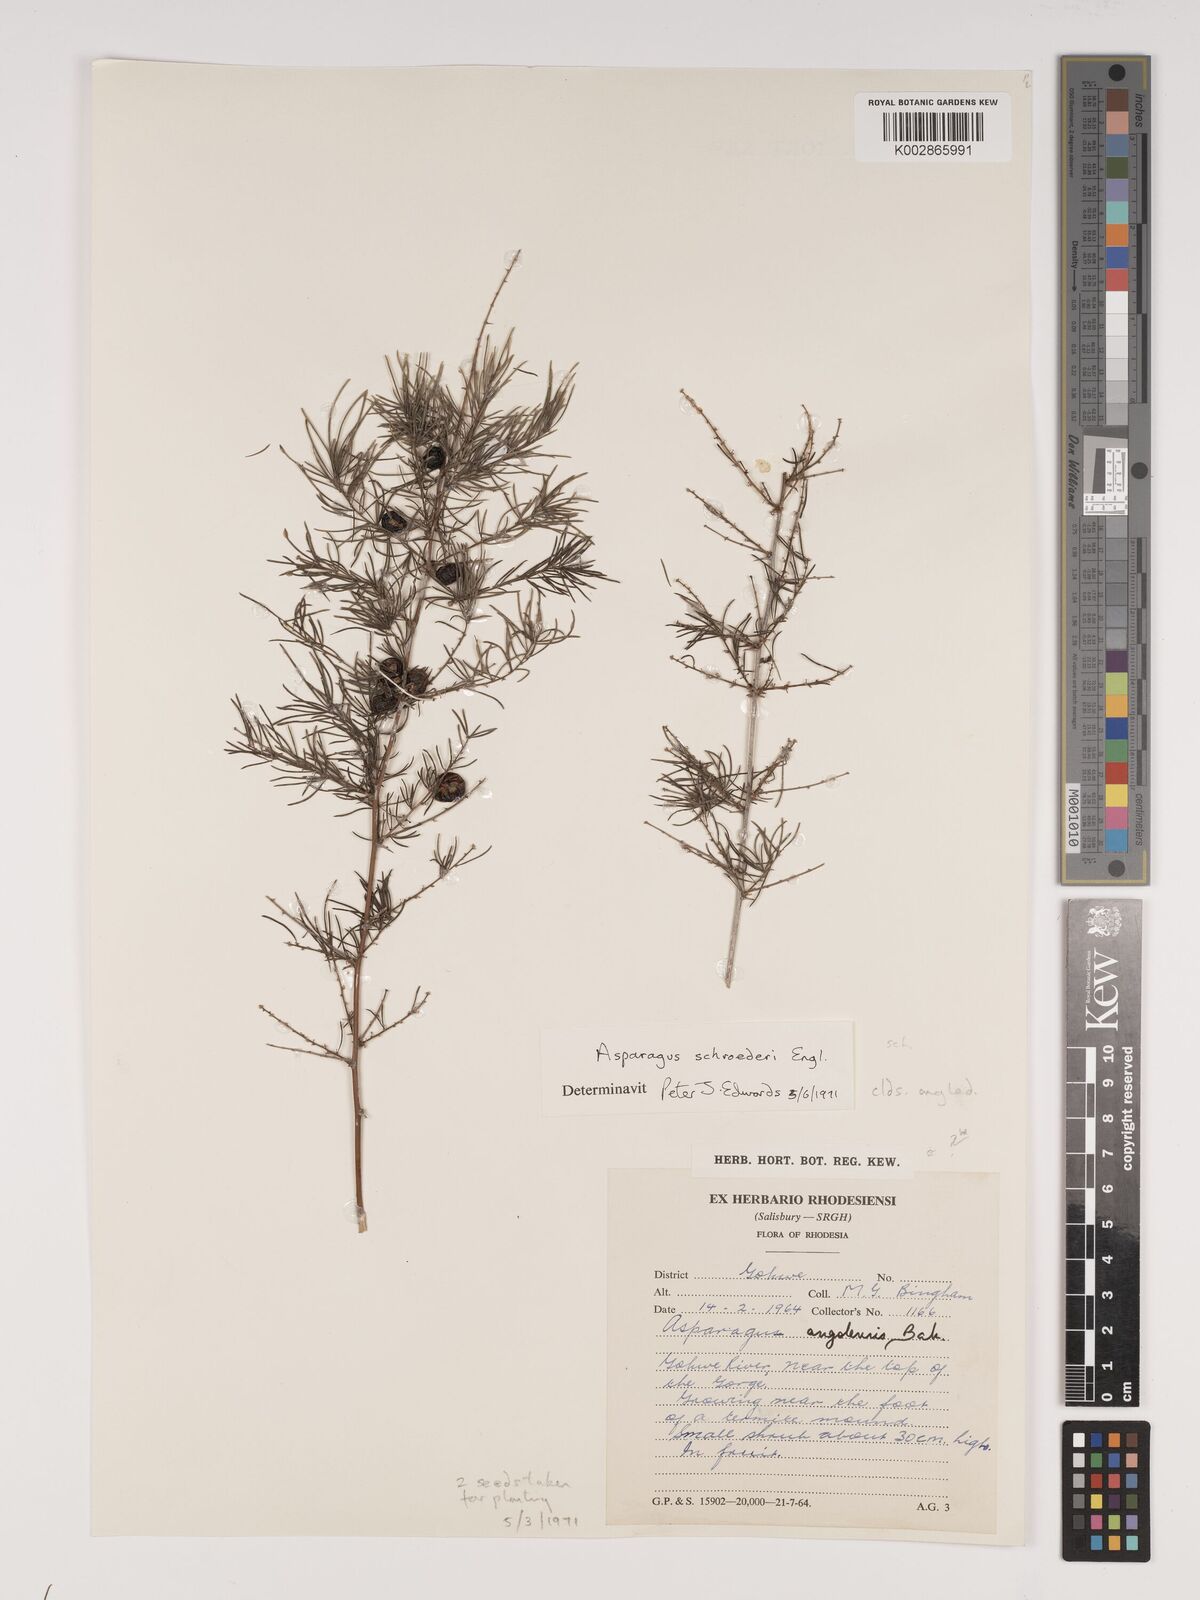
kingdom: Plantae
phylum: Tracheophyta
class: Liliopsida
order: Asparagales
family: Asparagaceae
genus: Asparagus
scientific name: Asparagus schroederi
